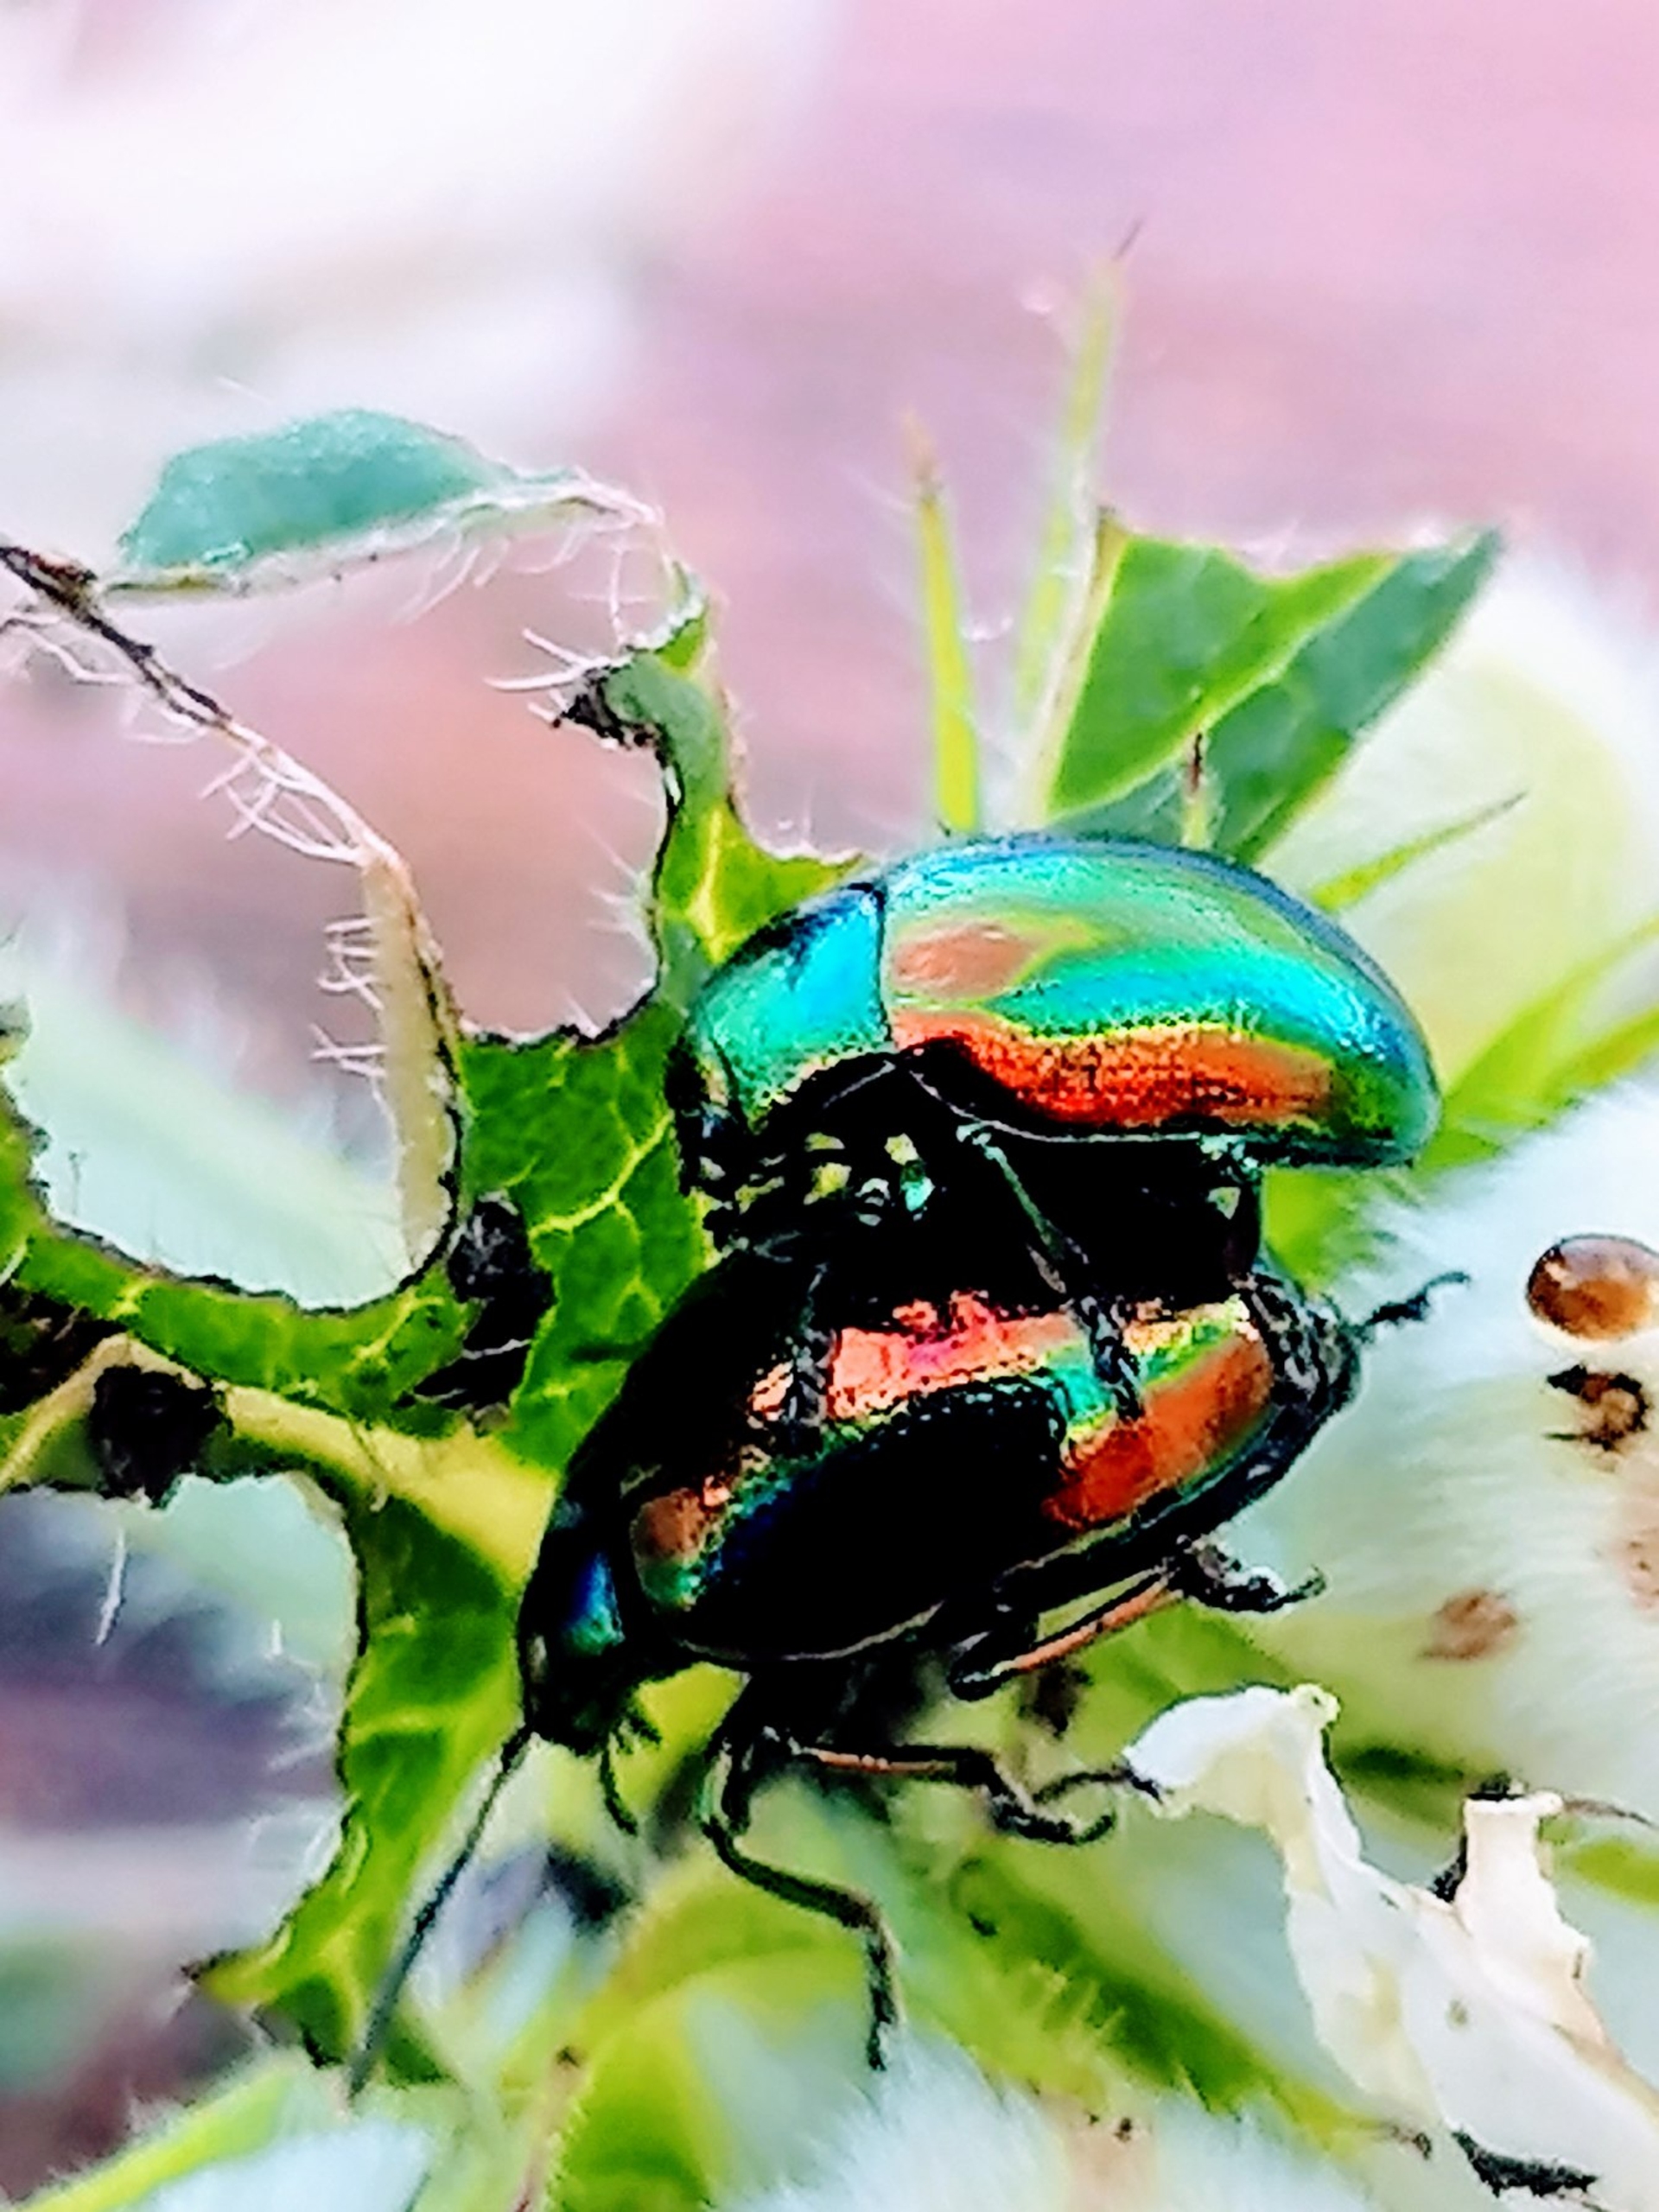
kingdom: Animalia
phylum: Arthropoda
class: Insecta
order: Coleoptera
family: Chrysomelidae
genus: Chrysolina
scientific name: Chrysolina fastuosa
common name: Tvetandbladbille
